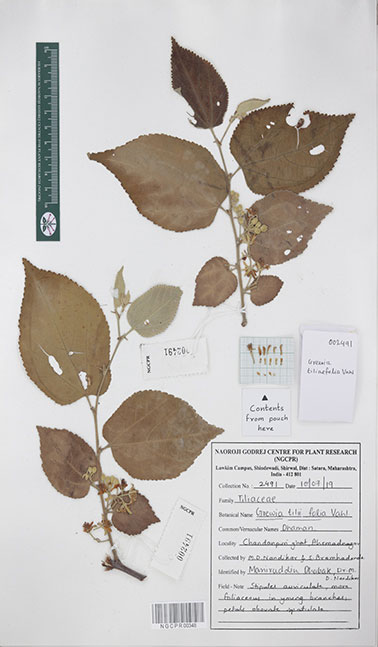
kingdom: Plantae
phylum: Tracheophyta
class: Magnoliopsida
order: Malvales
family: Malvaceae
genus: Grewia
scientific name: Grewia tiliifolia
